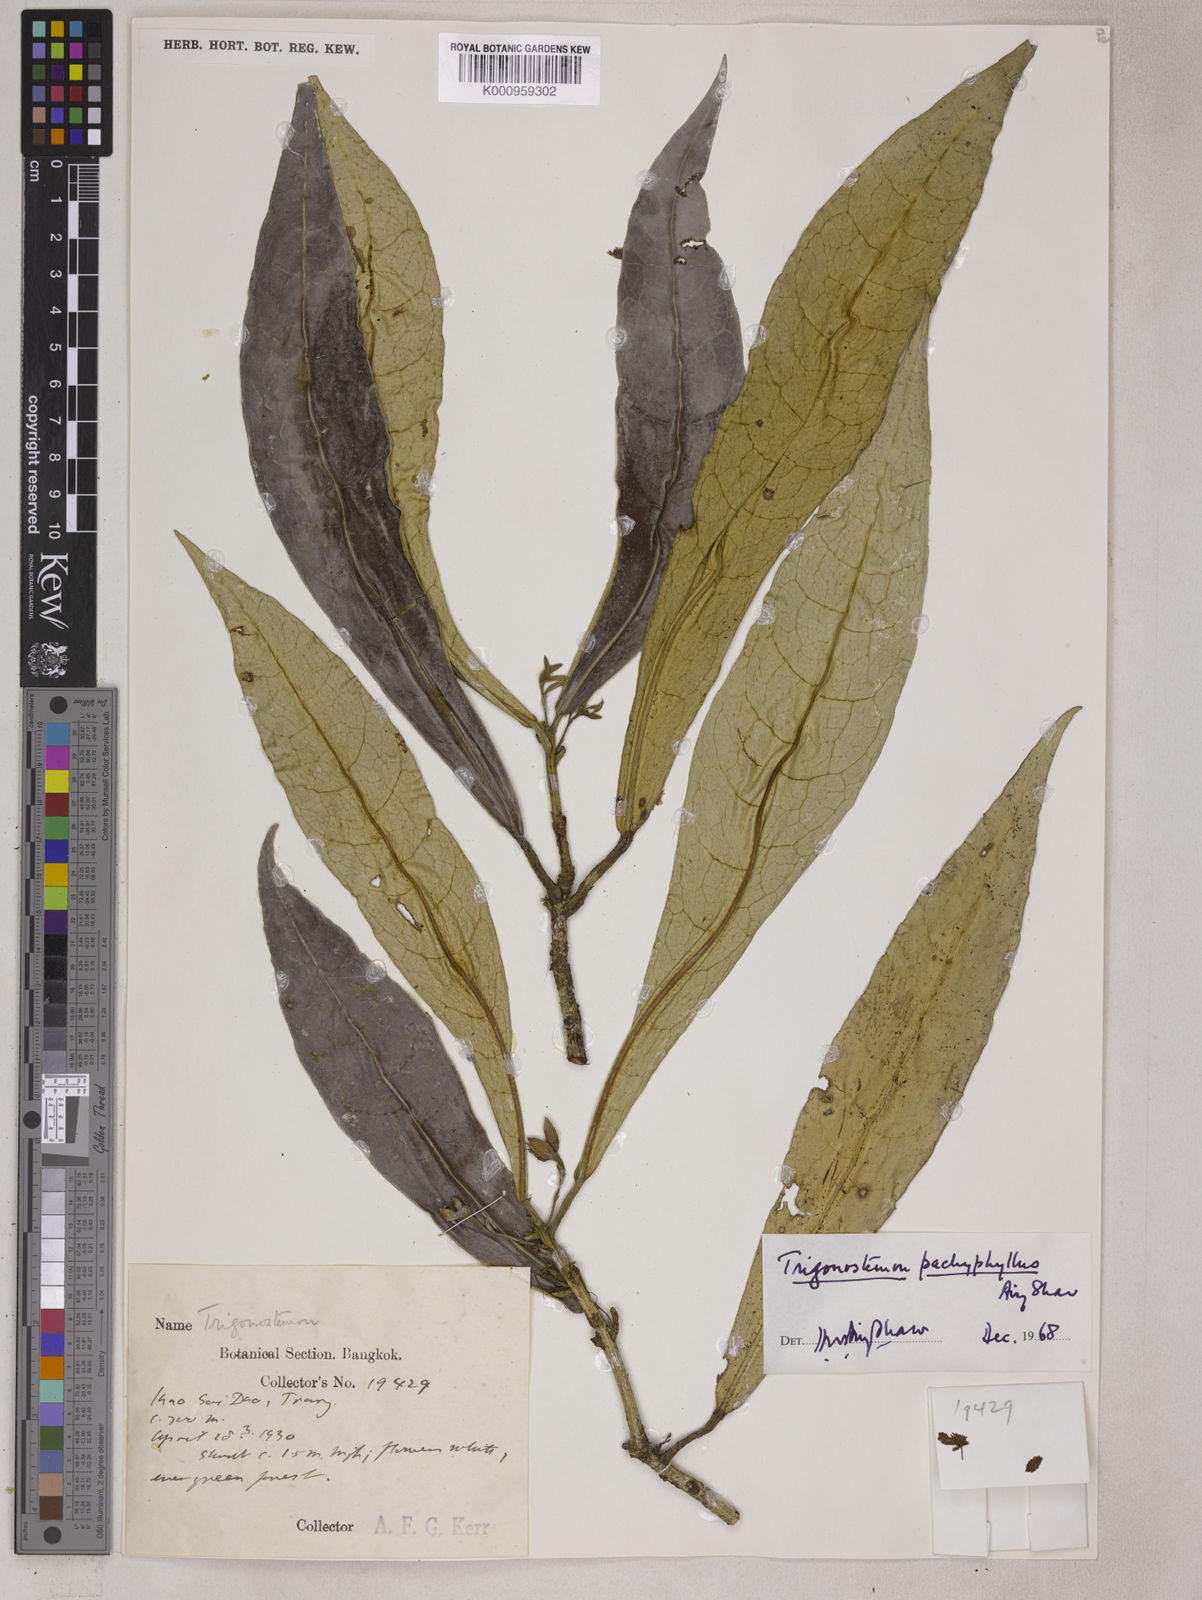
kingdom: Plantae
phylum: Tracheophyta
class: Magnoliopsida
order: Malpighiales
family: Euphorbiaceae
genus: Trigonostemon
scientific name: Trigonostemon pachyphyllus
